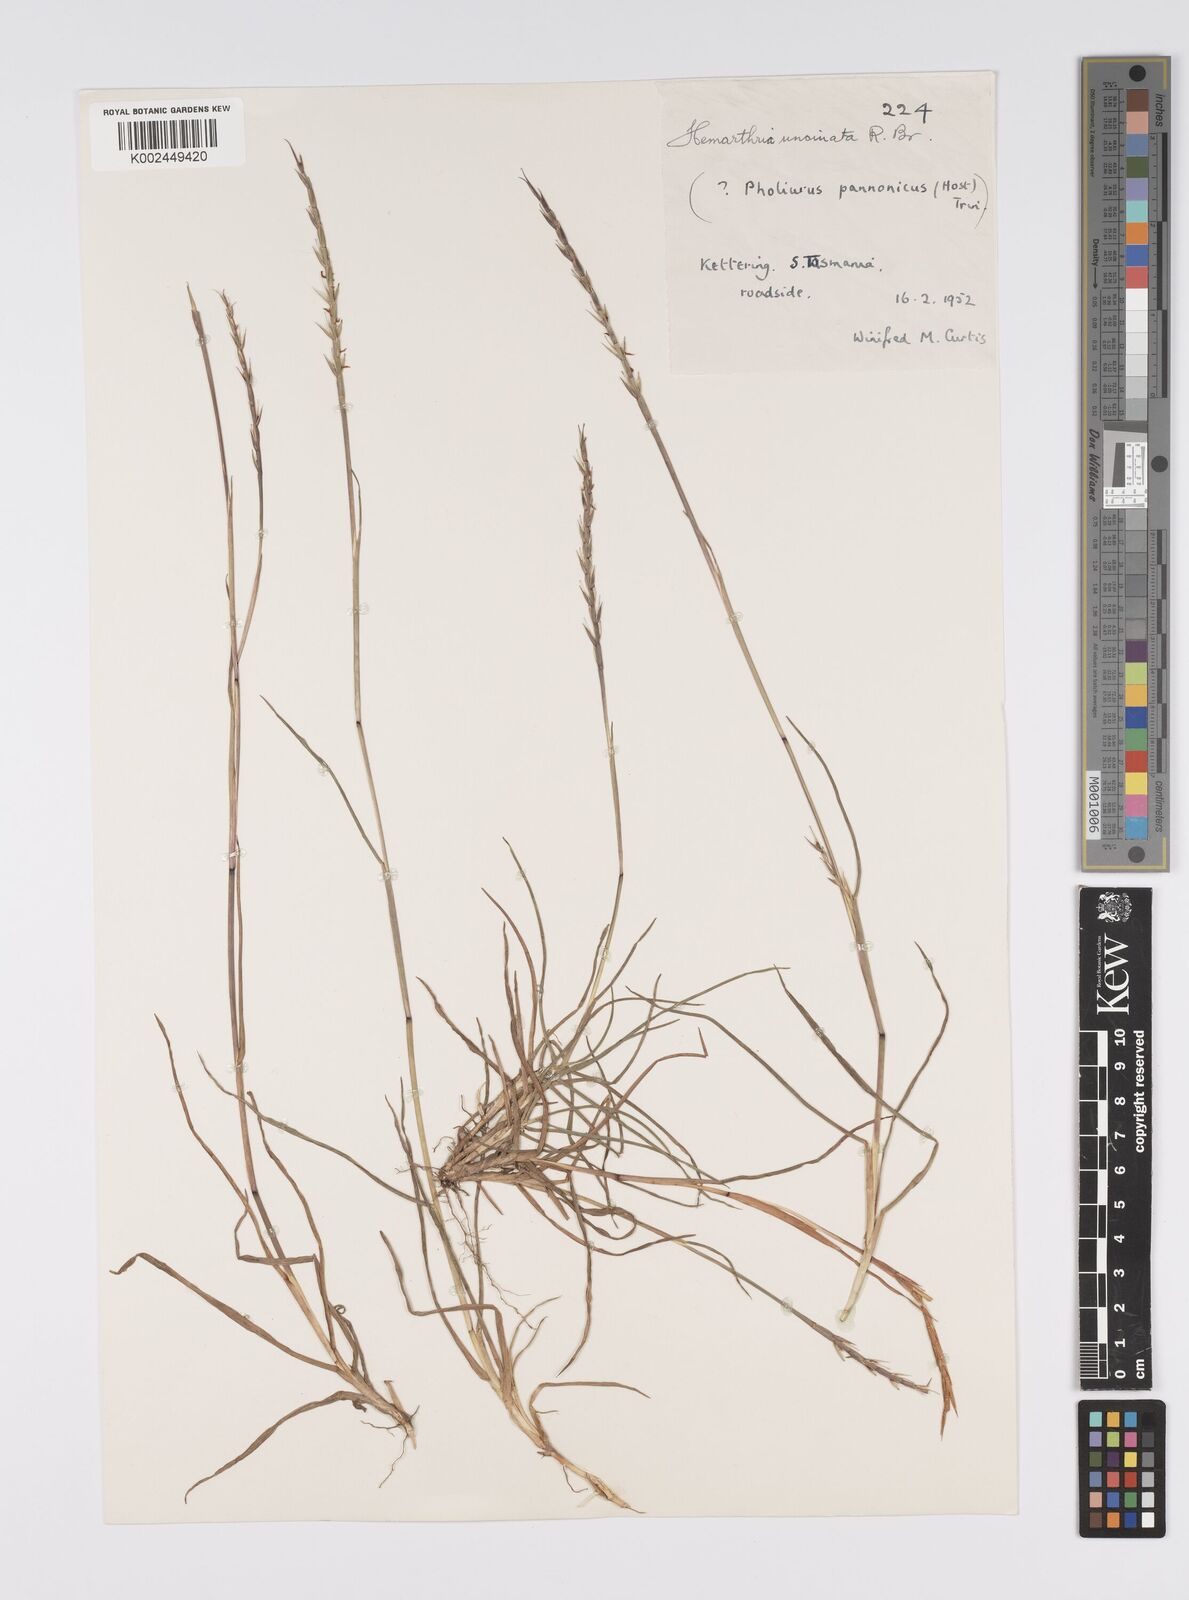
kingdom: Plantae
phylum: Tracheophyta
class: Liliopsida
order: Poales
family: Poaceae
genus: Hemarthria
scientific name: Hemarthria uncinata
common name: Matgrass
